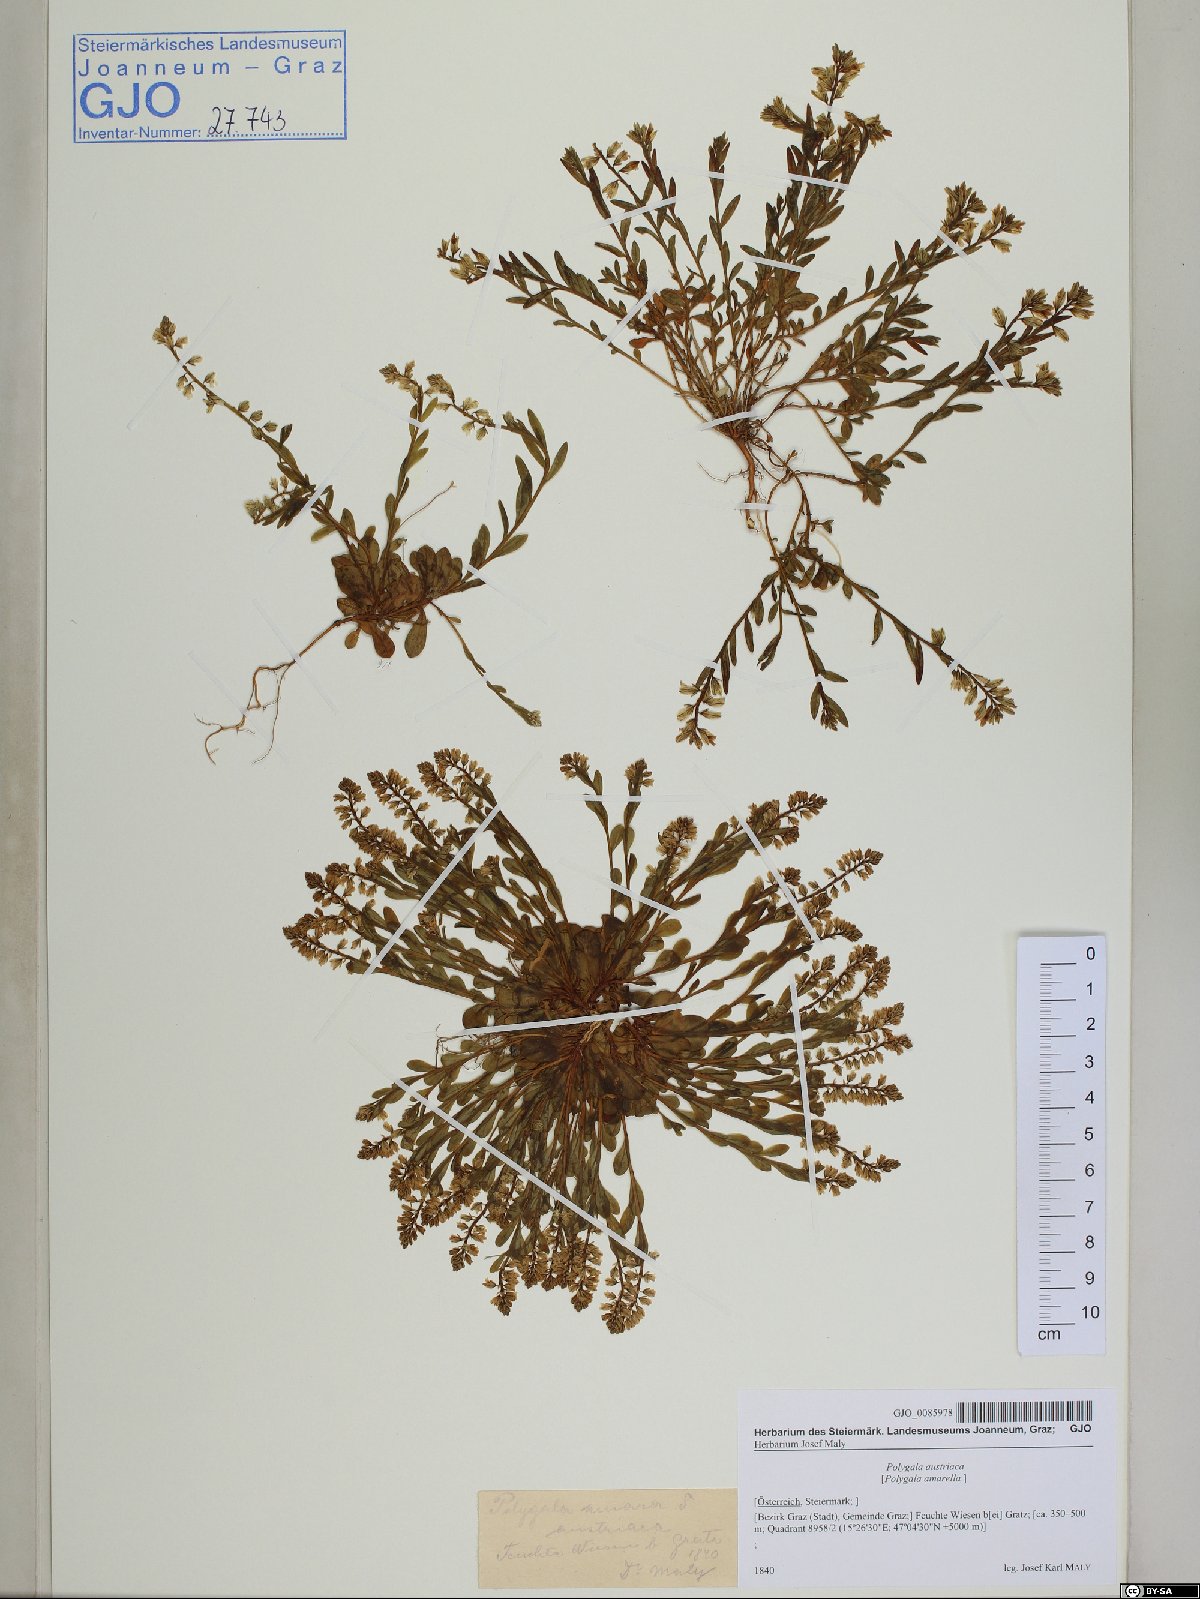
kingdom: Plantae
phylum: Tracheophyta
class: Magnoliopsida
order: Fabales
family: Polygalaceae
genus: Polygala
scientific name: Polygala amarella
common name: Dwarf milkwort
